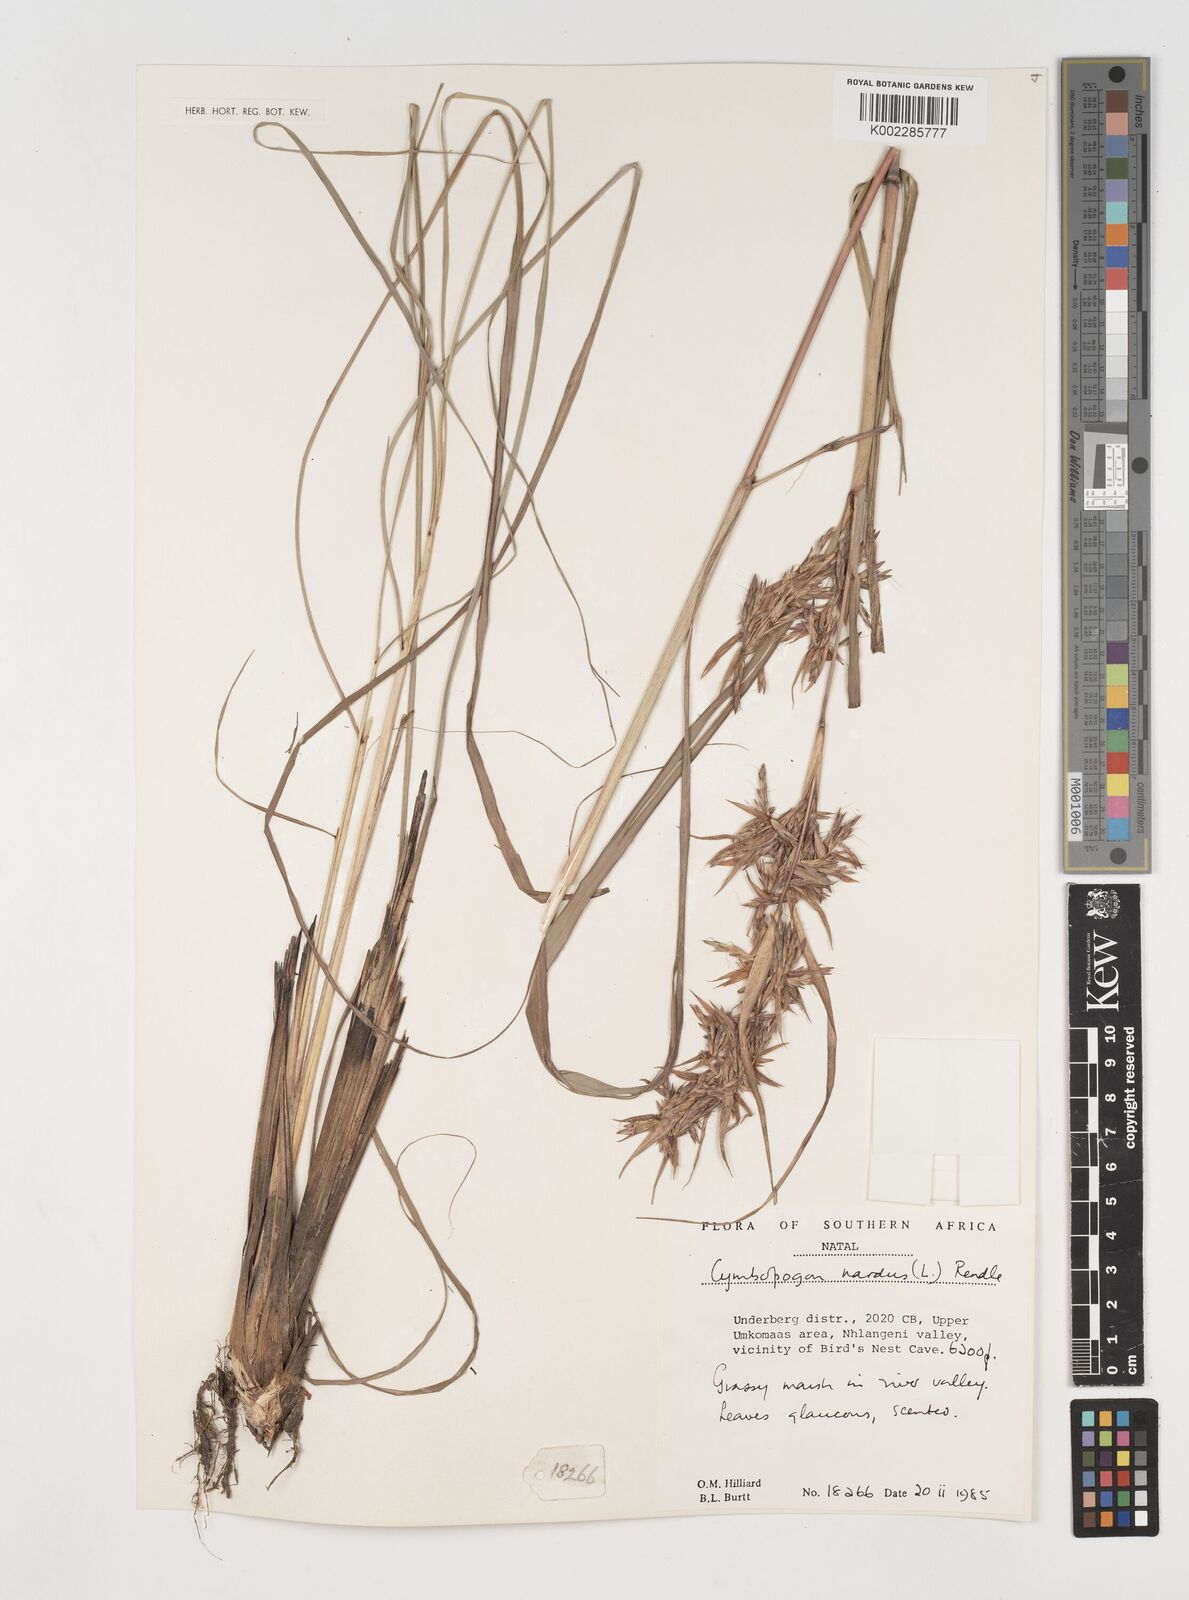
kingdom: Plantae
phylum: Tracheophyta
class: Liliopsida
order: Poales
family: Poaceae
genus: Cymbopogon
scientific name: Cymbopogon nardus
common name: Giant turpentine grass
